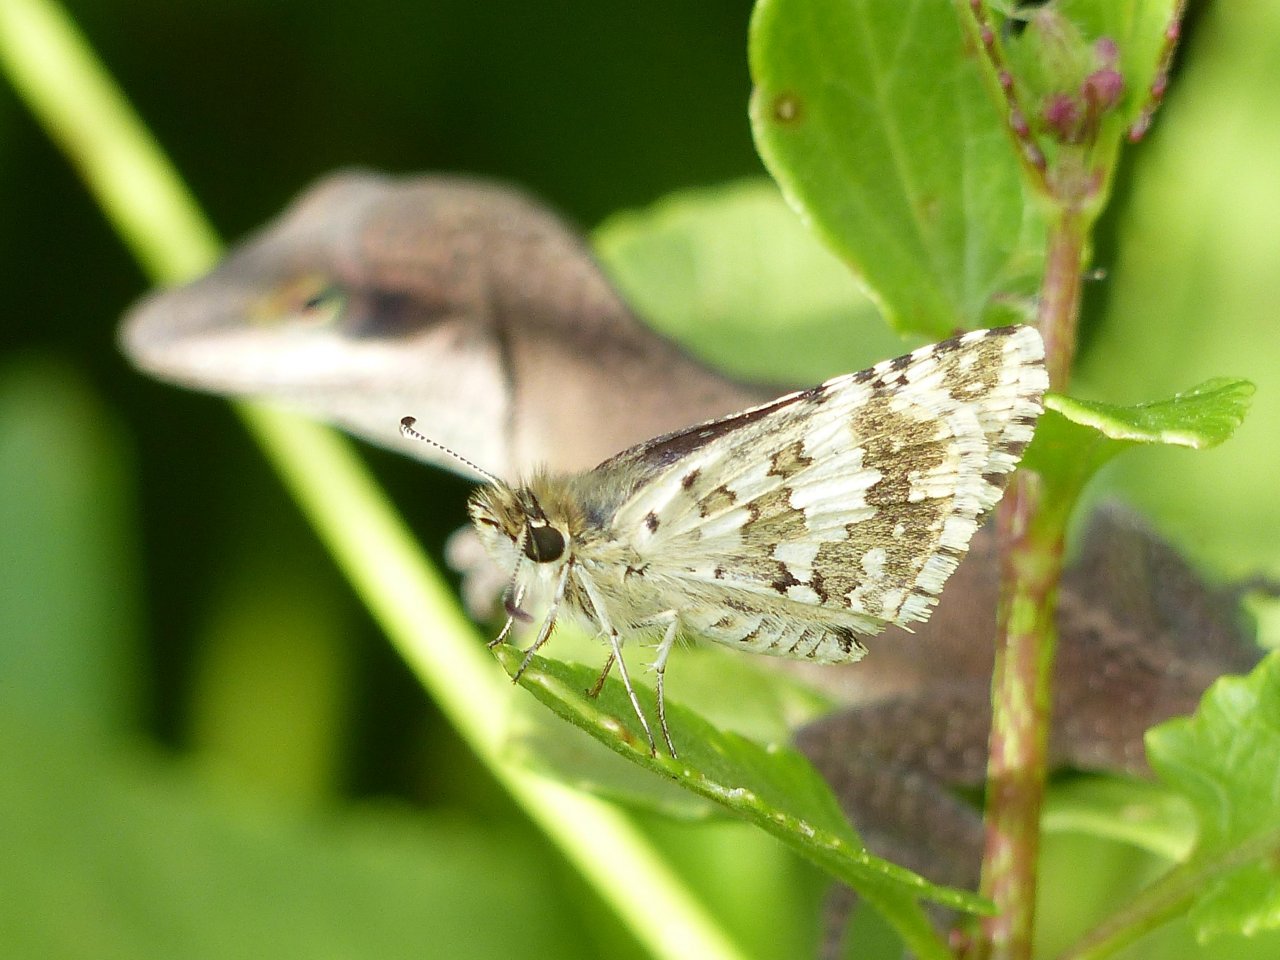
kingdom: Animalia
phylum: Arthropoda
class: Insecta
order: Lepidoptera
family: Hesperiidae
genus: Pyrgus
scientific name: Pyrgus communis
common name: White Checkered-Skipper
